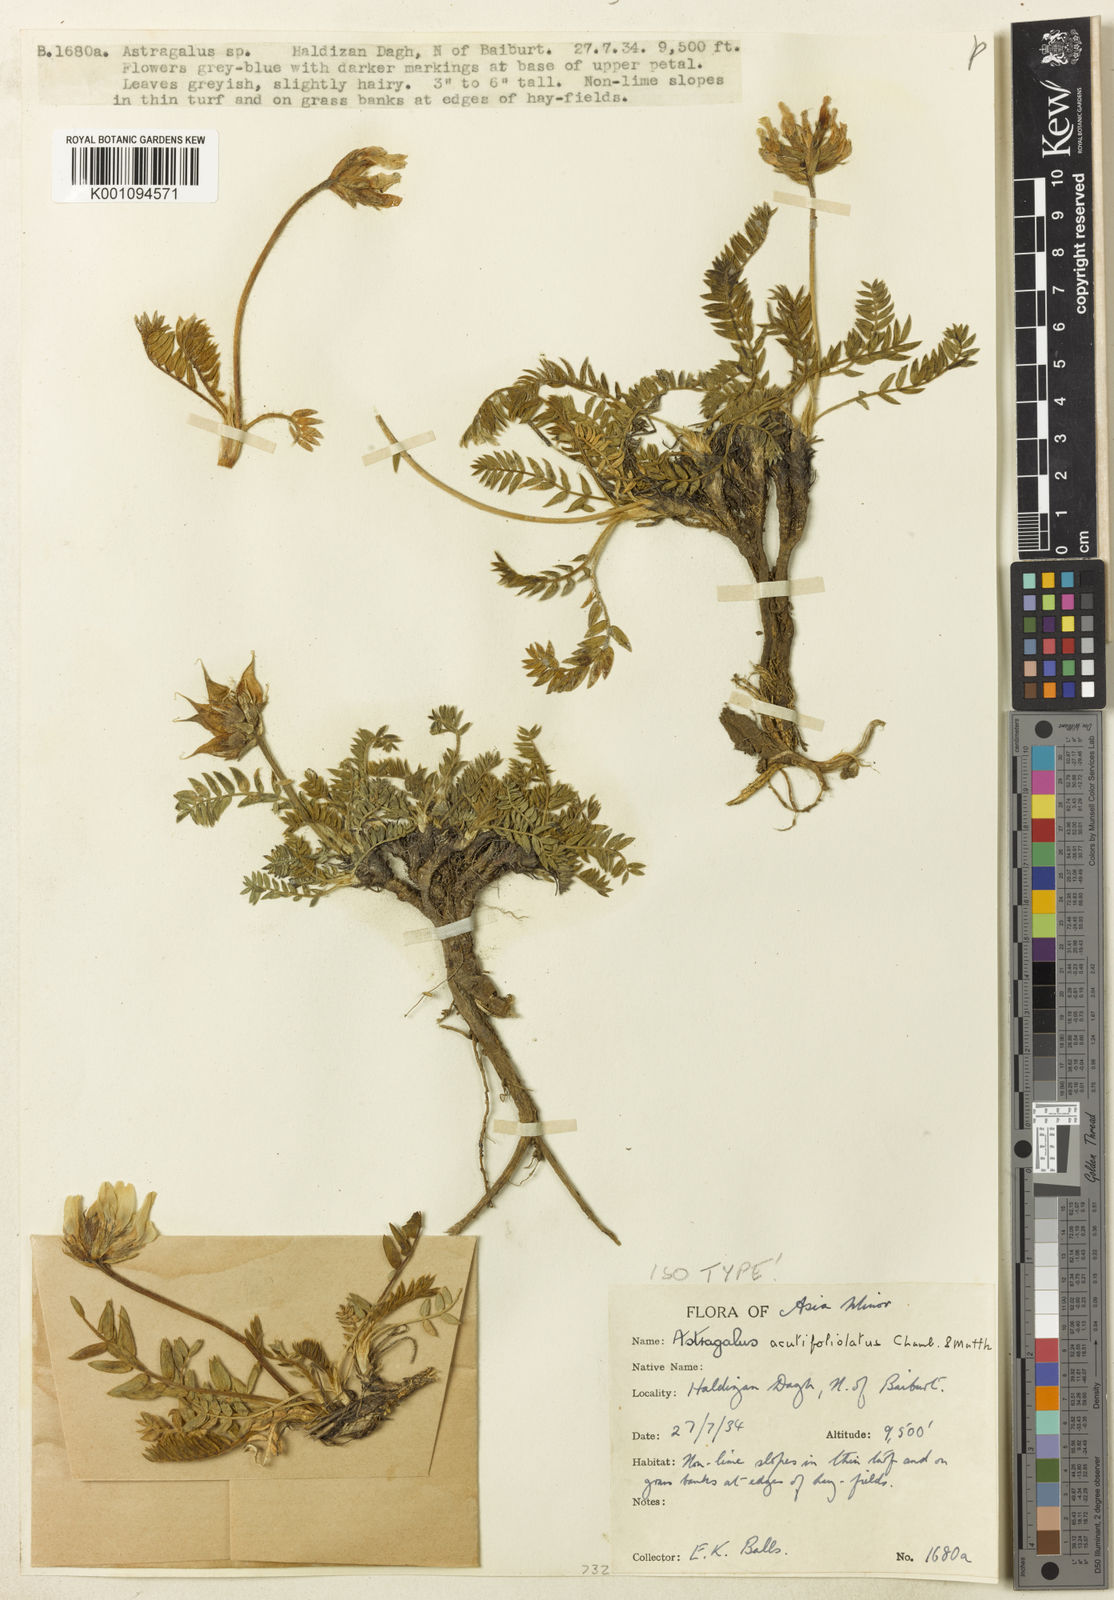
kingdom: Plantae
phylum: Tracheophyta
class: Magnoliopsida
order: Fabales
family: Fabaceae
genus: Astragalus
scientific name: Astragalus
